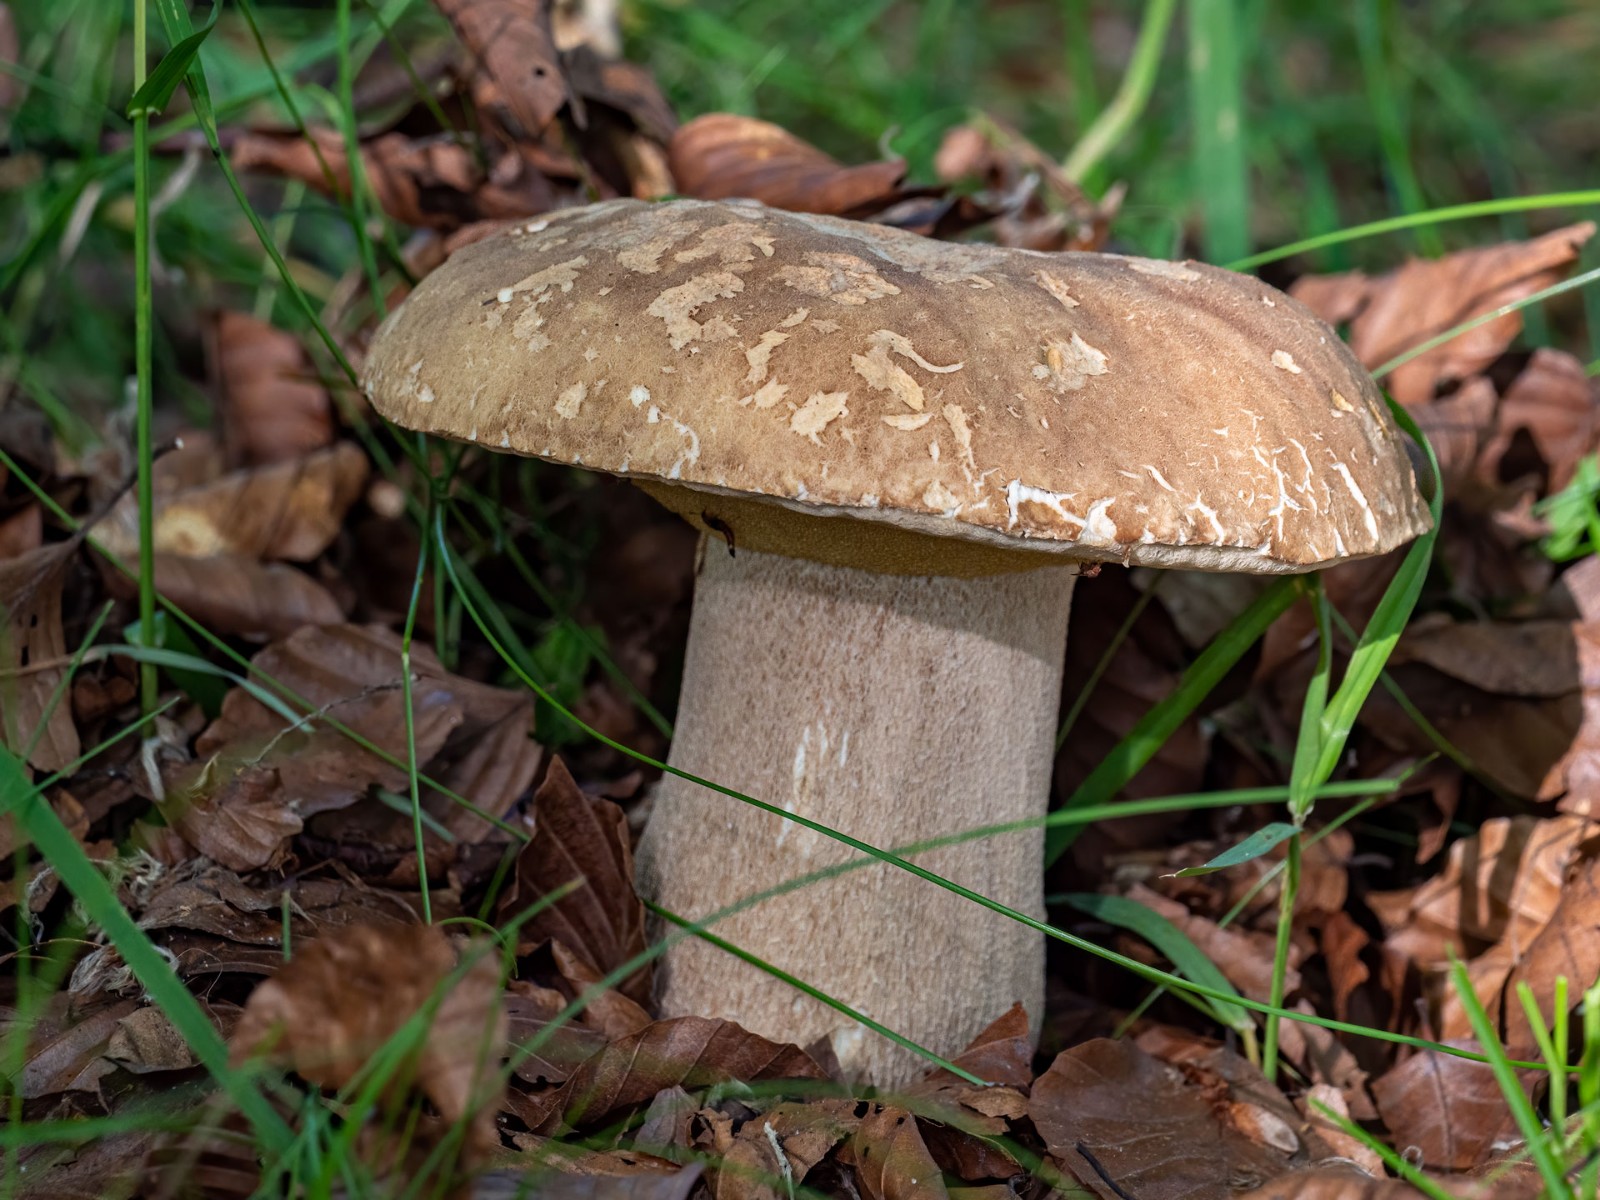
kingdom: Fungi
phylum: Basidiomycota
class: Agaricomycetes
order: Boletales
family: Boletaceae
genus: Boletus
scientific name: Boletus reticulatus
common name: sommer-rørhat
